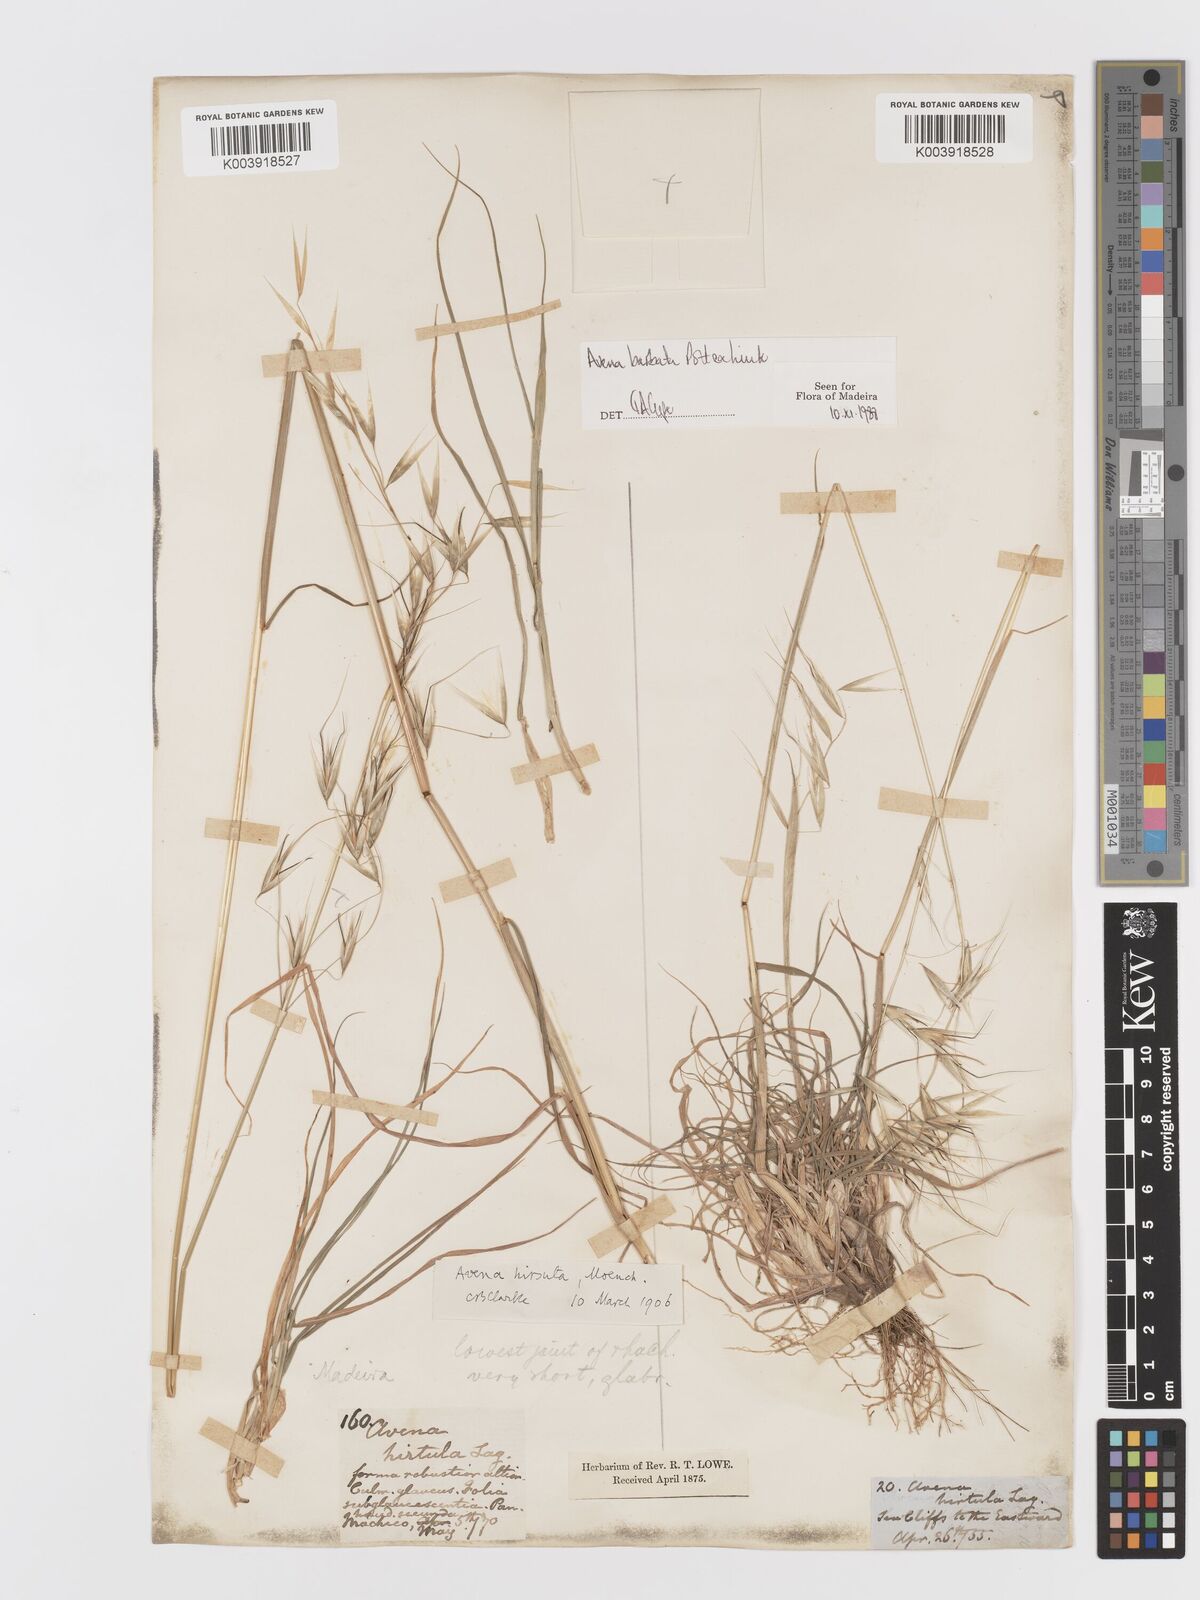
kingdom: Plantae
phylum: Tracheophyta
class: Liliopsida
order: Poales
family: Poaceae
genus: Avena
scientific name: Avena
